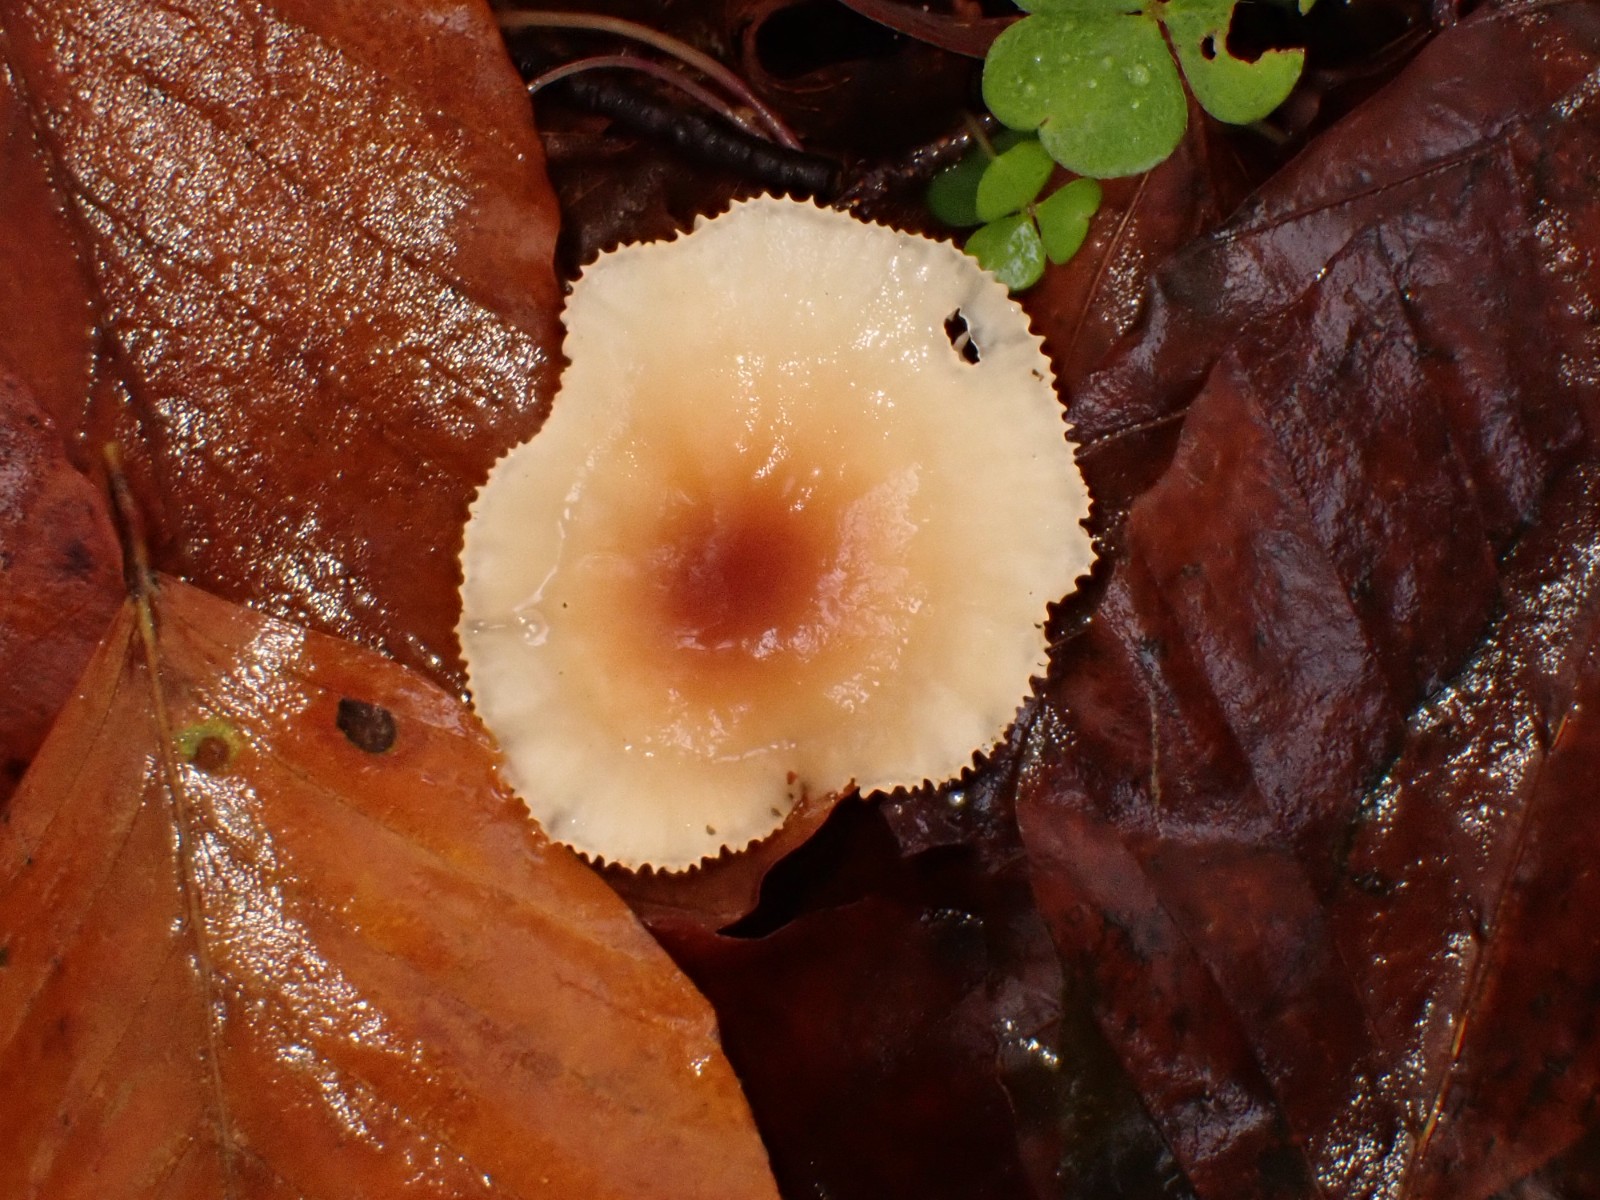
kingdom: Fungi
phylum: Basidiomycota
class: Agaricomycetes
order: Agaricales
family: Omphalotaceae
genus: Gymnopus
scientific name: Gymnopus
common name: fladhat
